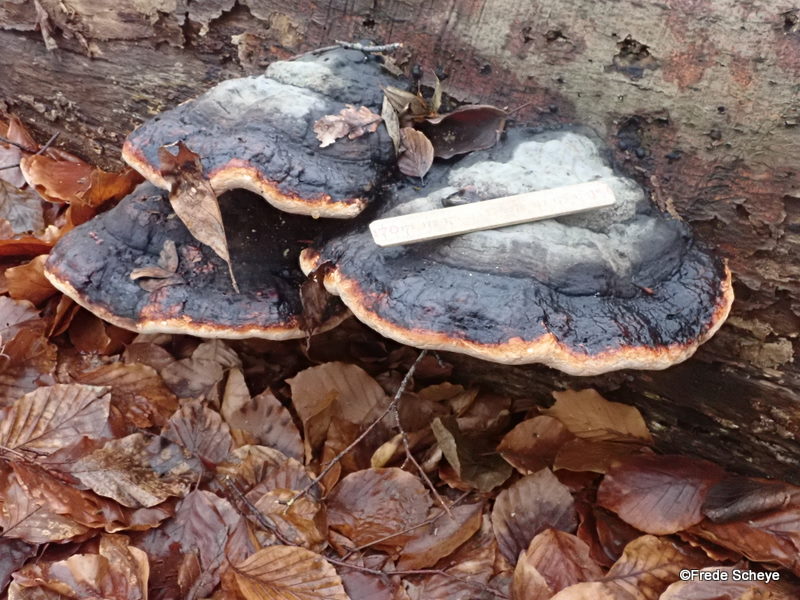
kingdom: Fungi
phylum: Basidiomycota
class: Agaricomycetes
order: Polyporales
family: Fomitopsidaceae
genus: Fomitopsis
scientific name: Fomitopsis pinicola
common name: randbæltet hovporesvamp
